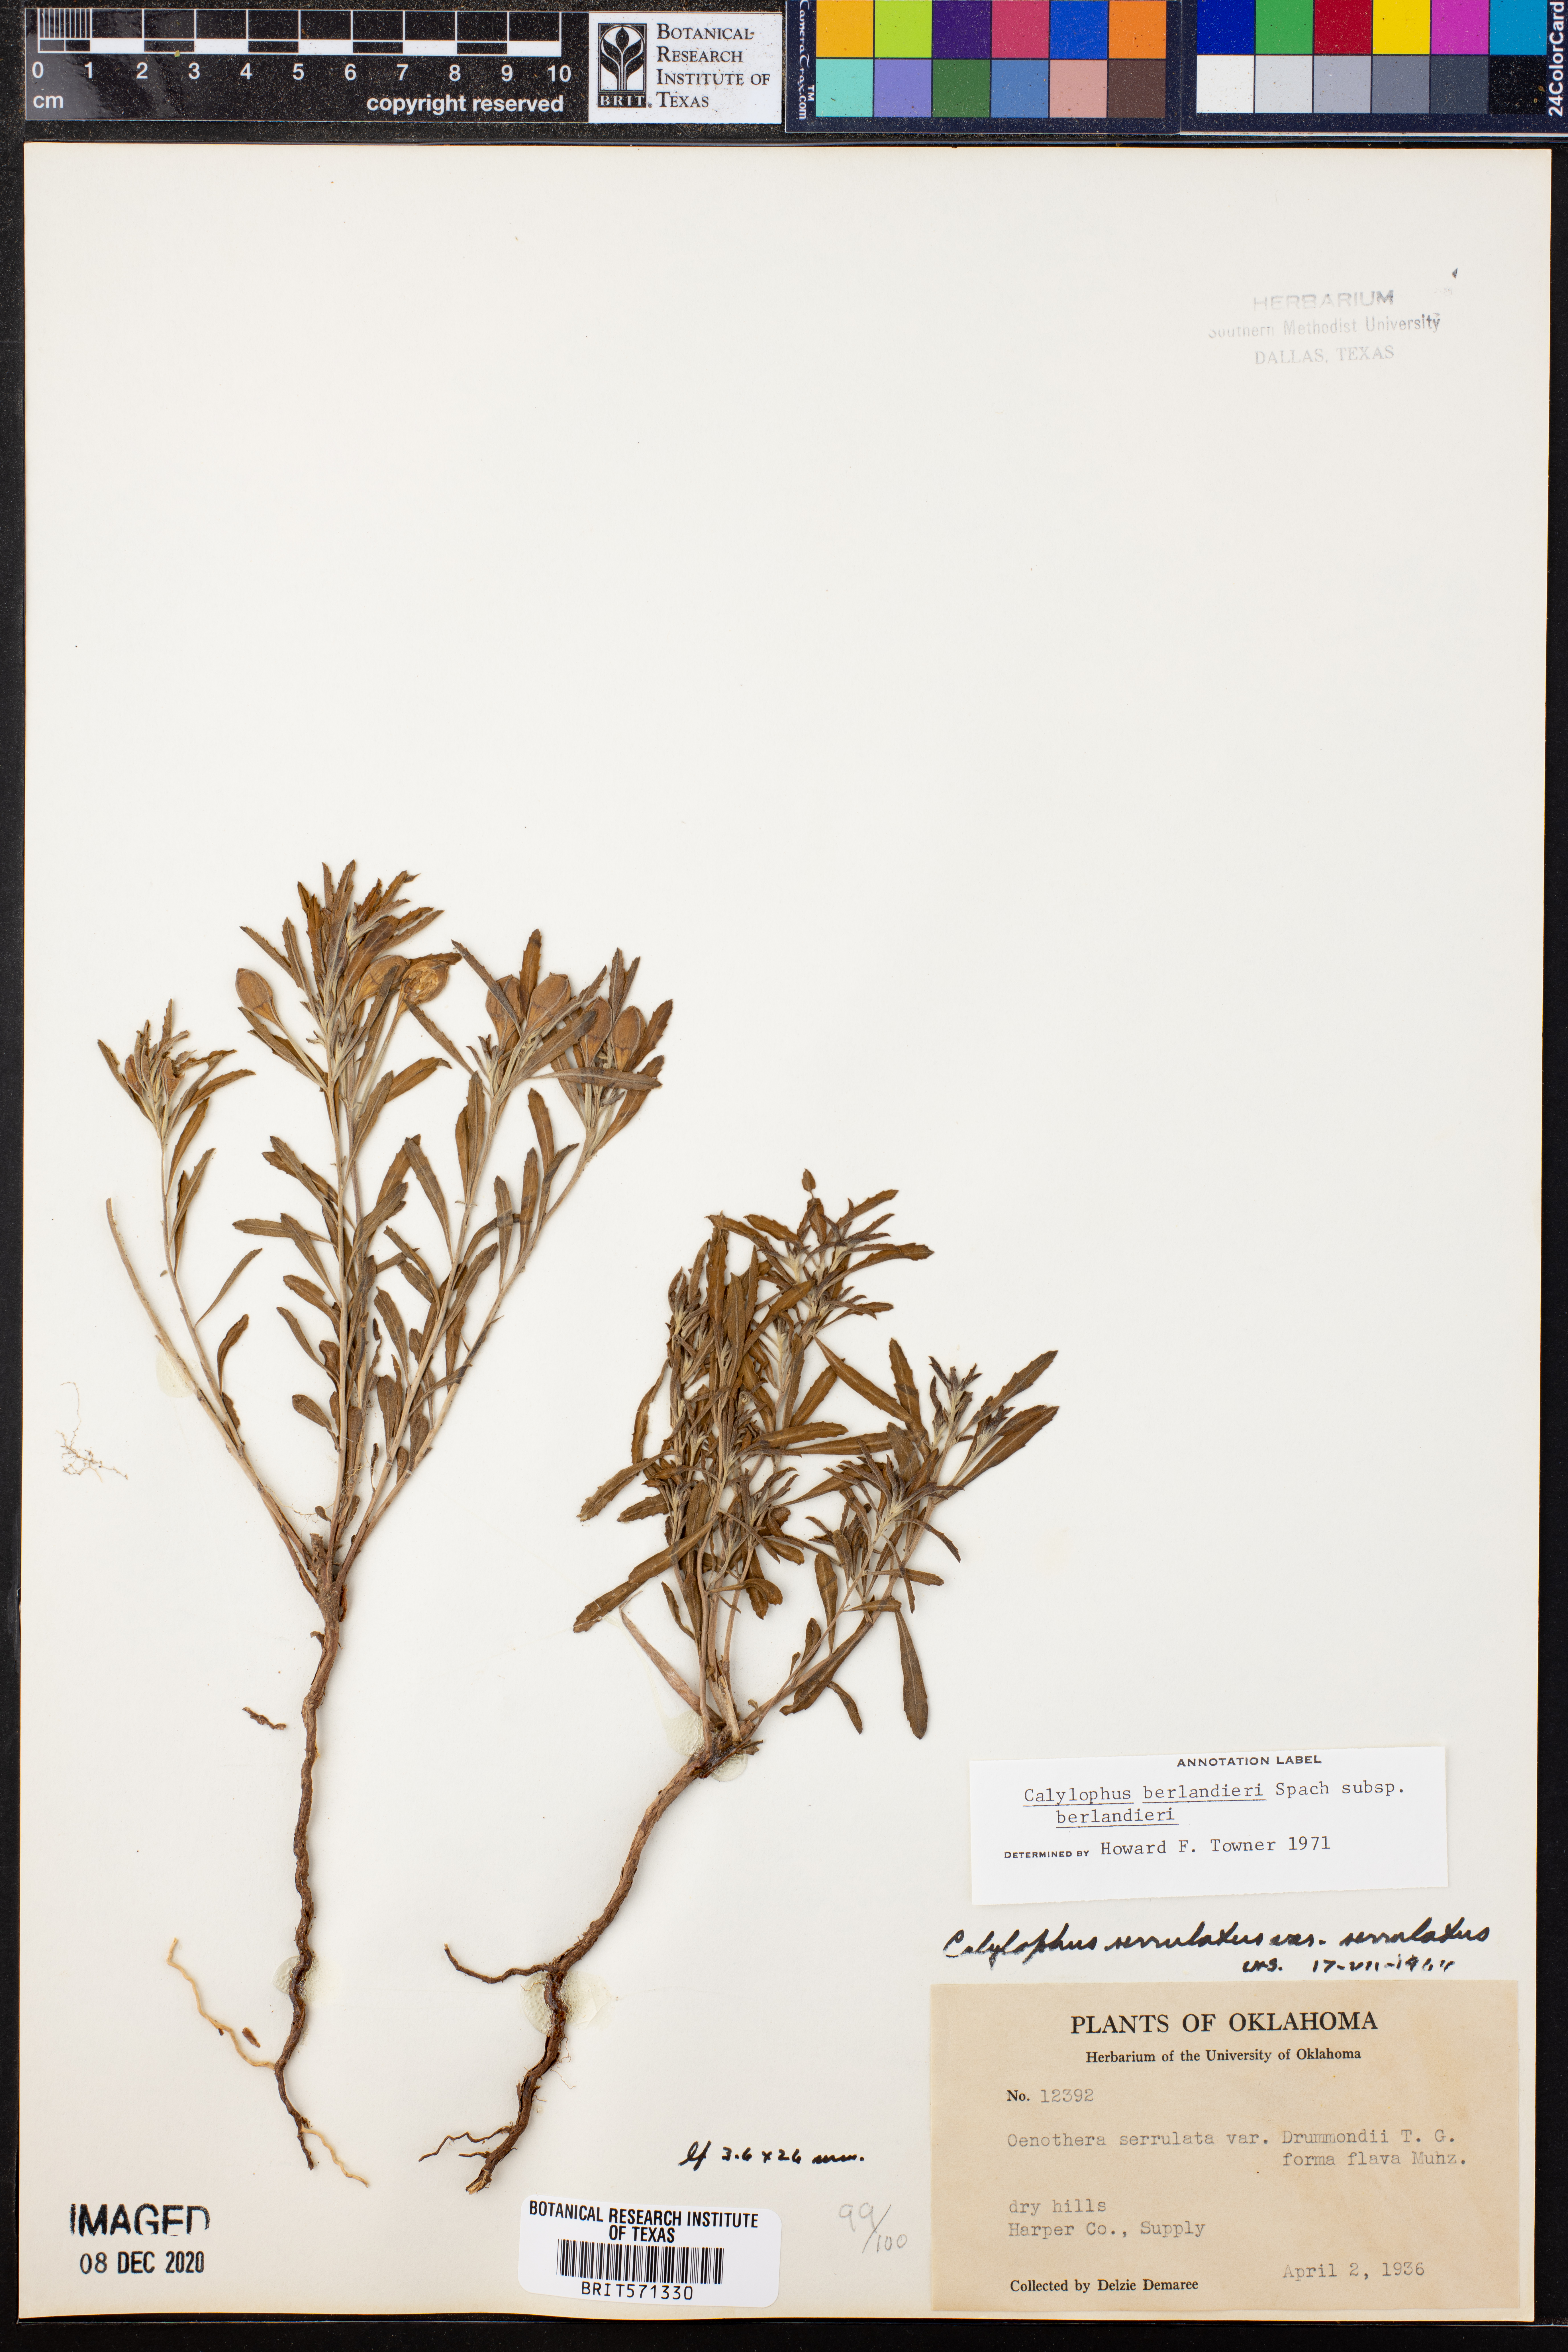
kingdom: Plantae
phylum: Tracheophyta
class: Magnoliopsida
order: Myrtales
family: Onagraceae
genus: Oenothera
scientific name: Oenothera capillifolia
